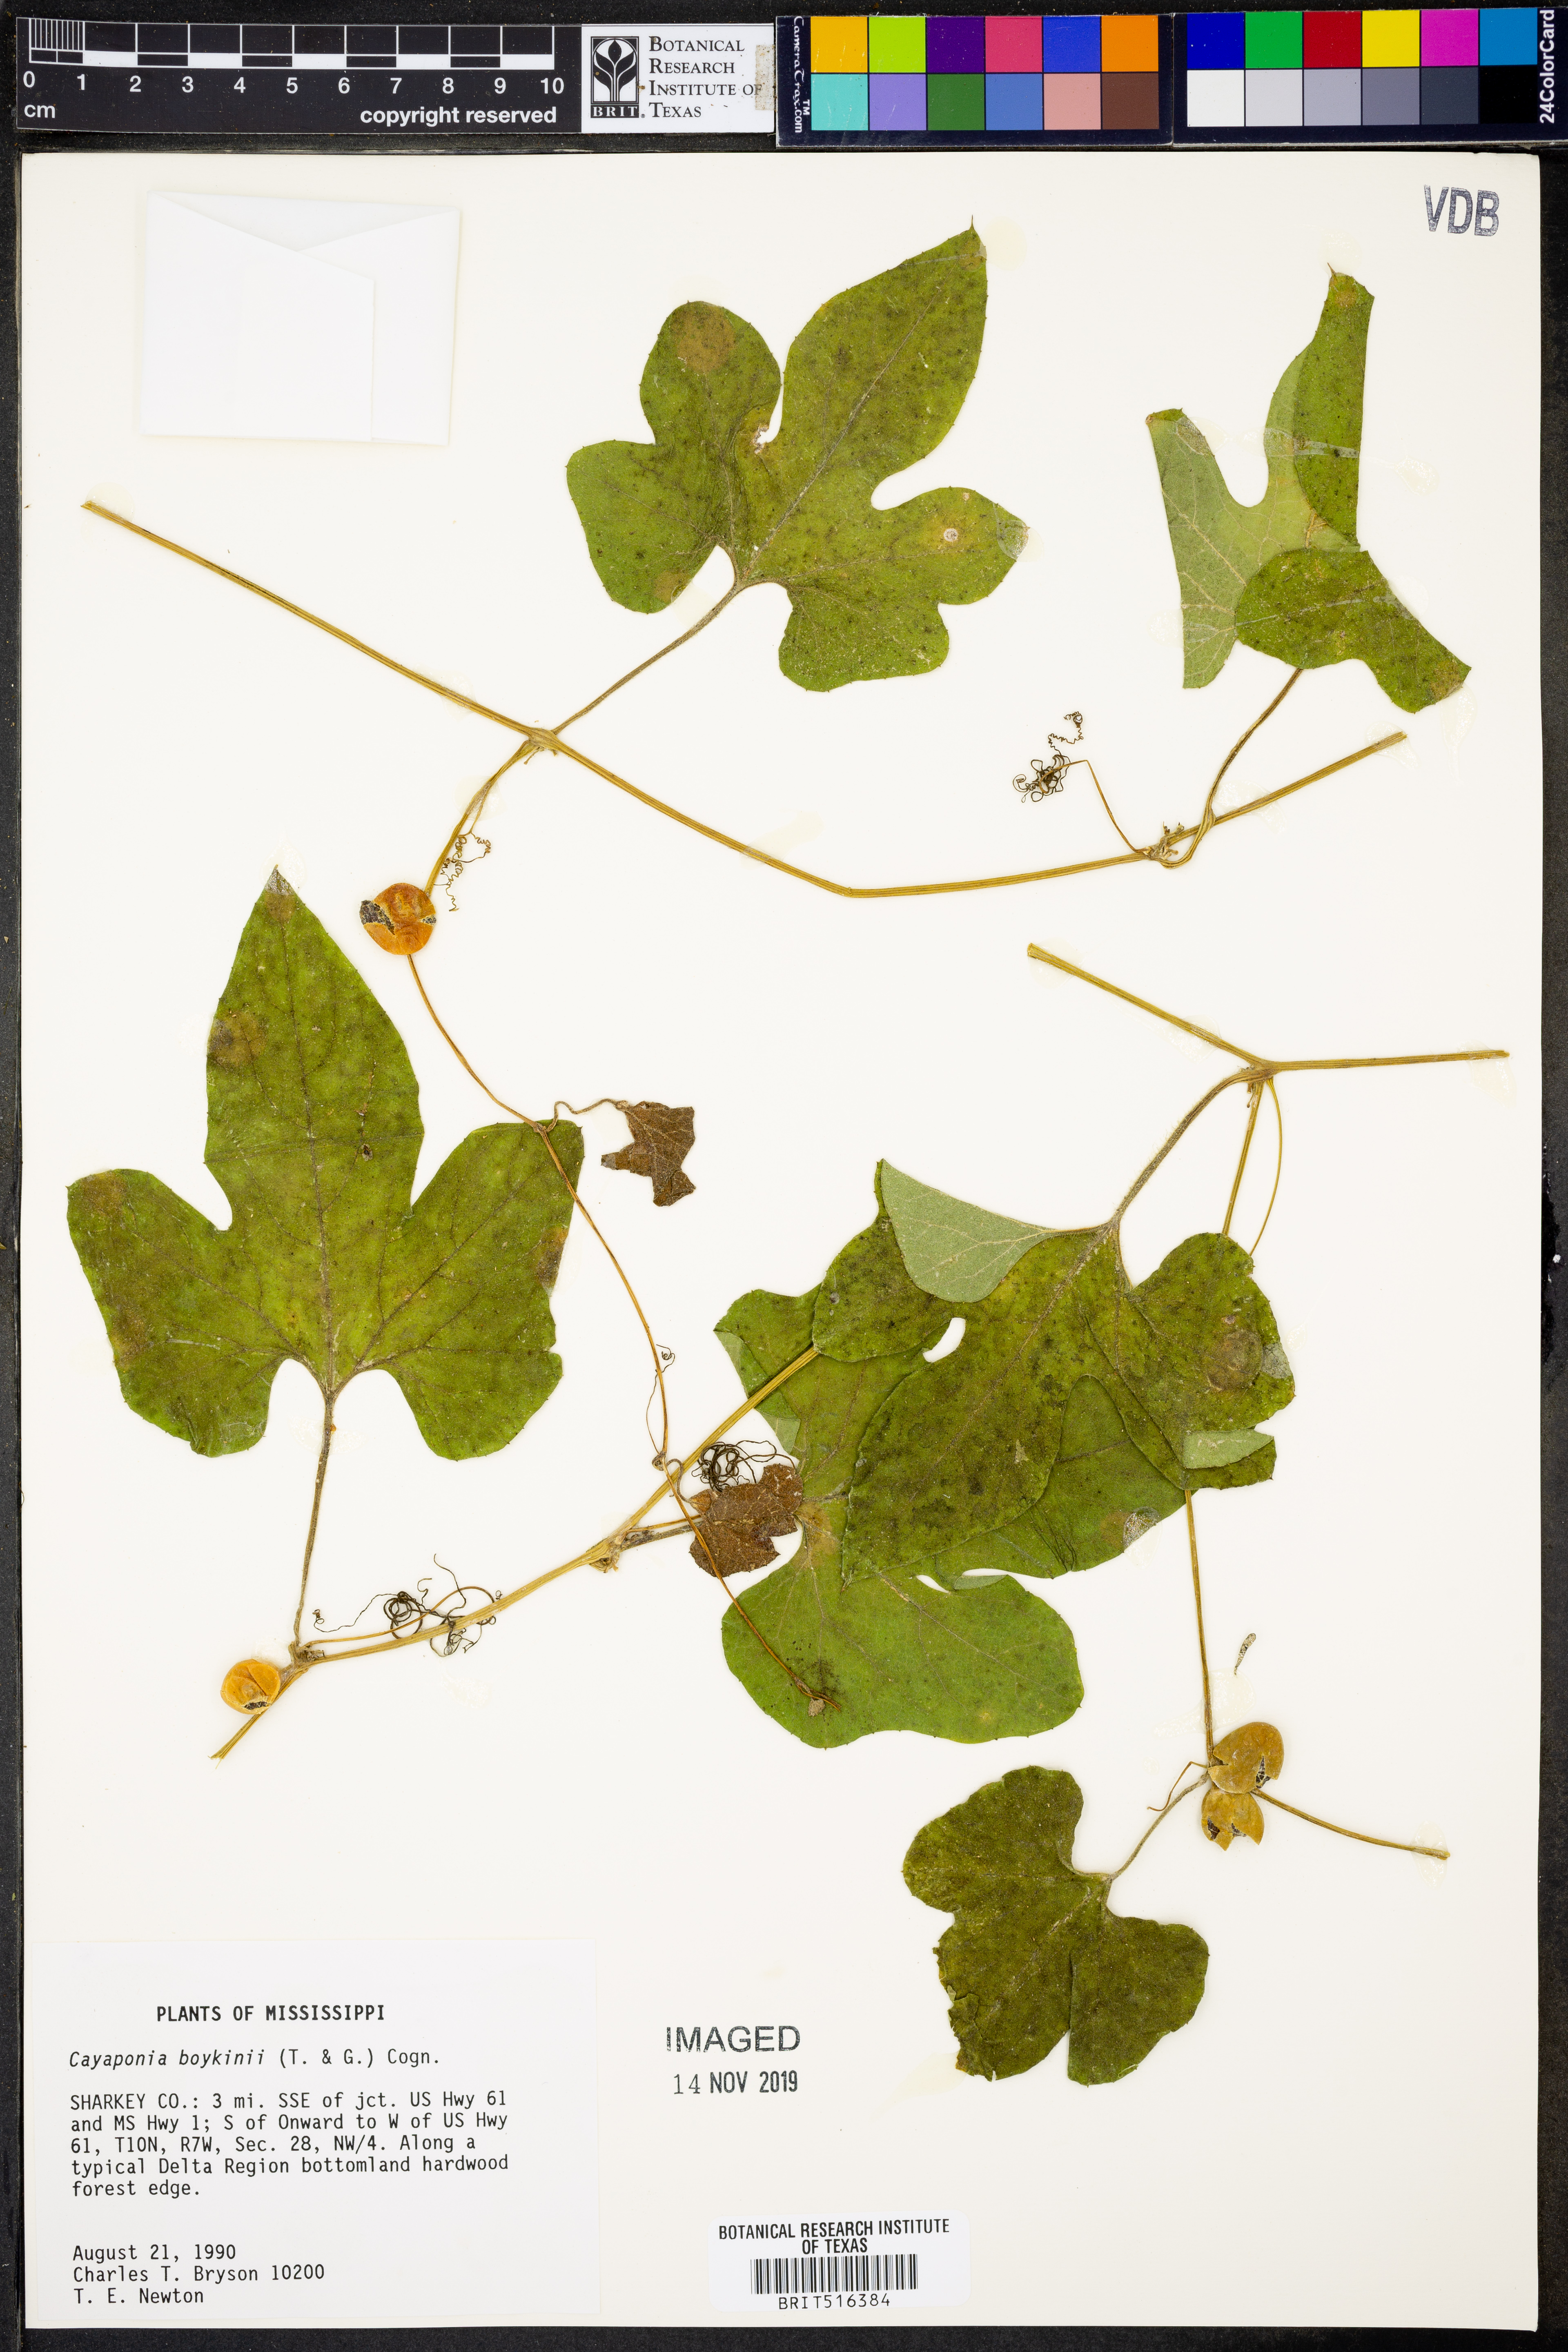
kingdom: Plantae
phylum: Tracheophyta
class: Magnoliopsida
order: Cucurbitales
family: Cucurbitaceae
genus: Cayaponia
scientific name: Cayaponia quinqueloba
